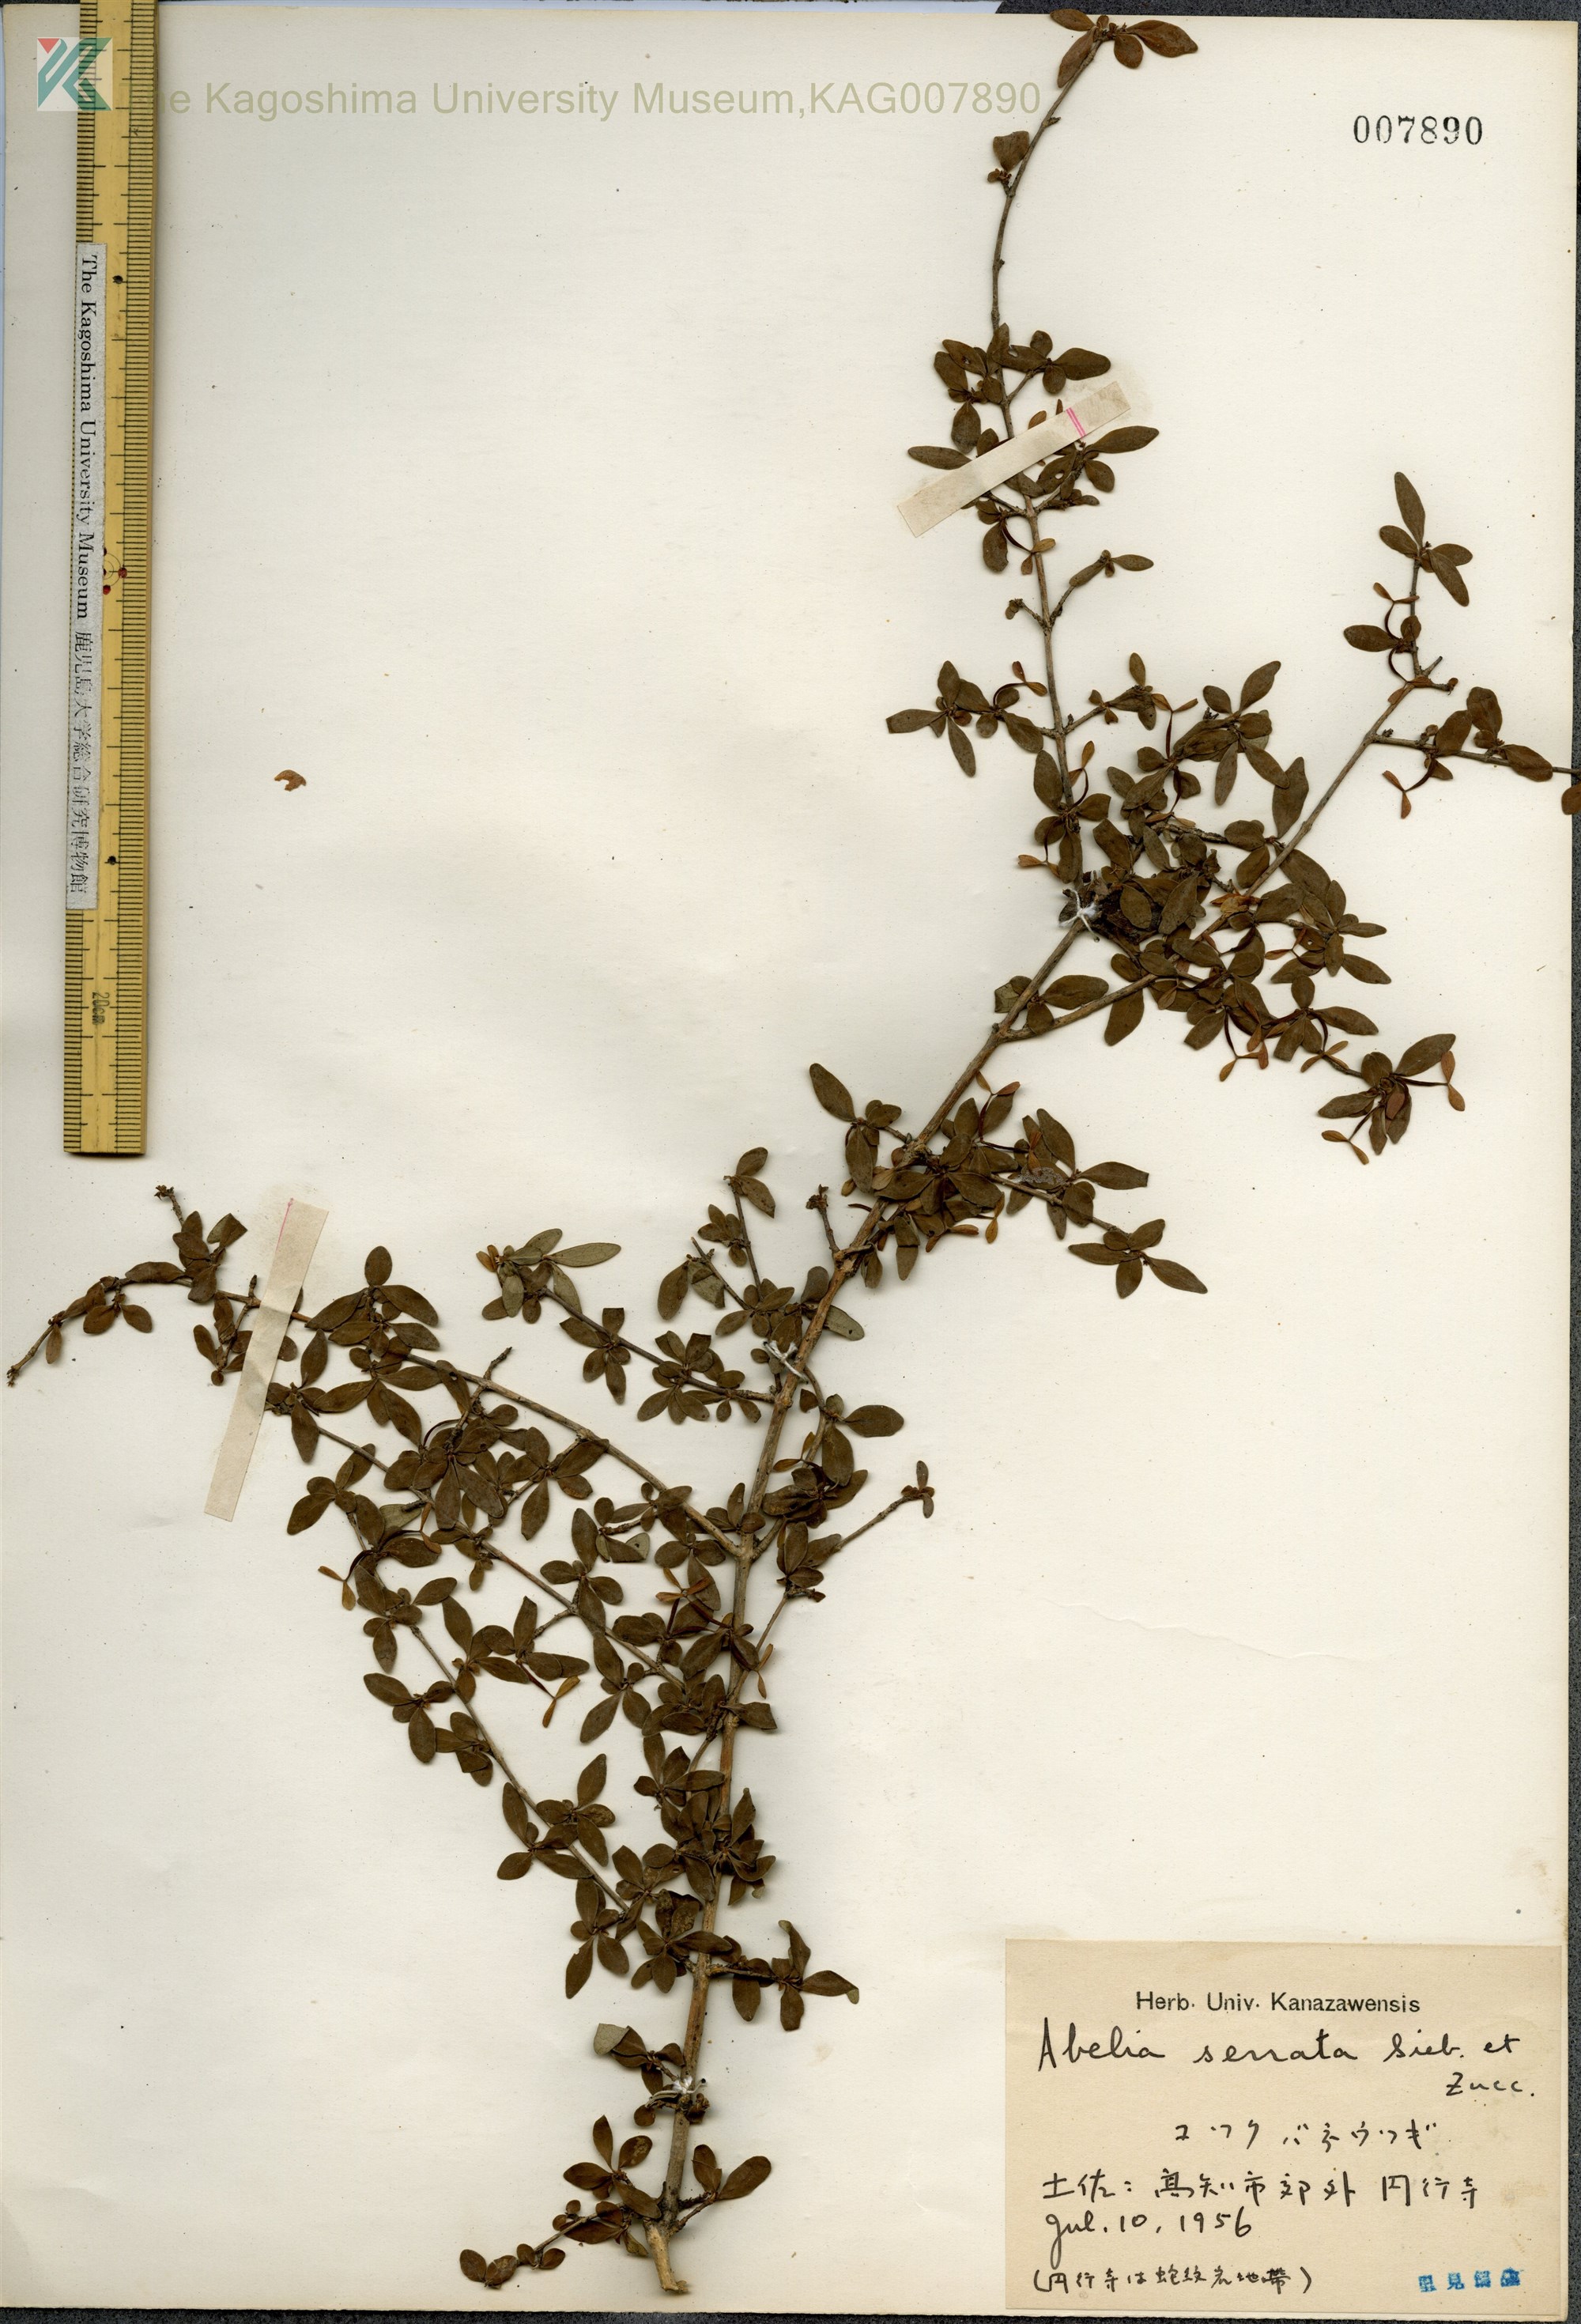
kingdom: Plantae
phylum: Tracheophyta
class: Magnoliopsida
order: Dipsacales
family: Caprifoliaceae
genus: Diabelia
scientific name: Diabelia serrata
